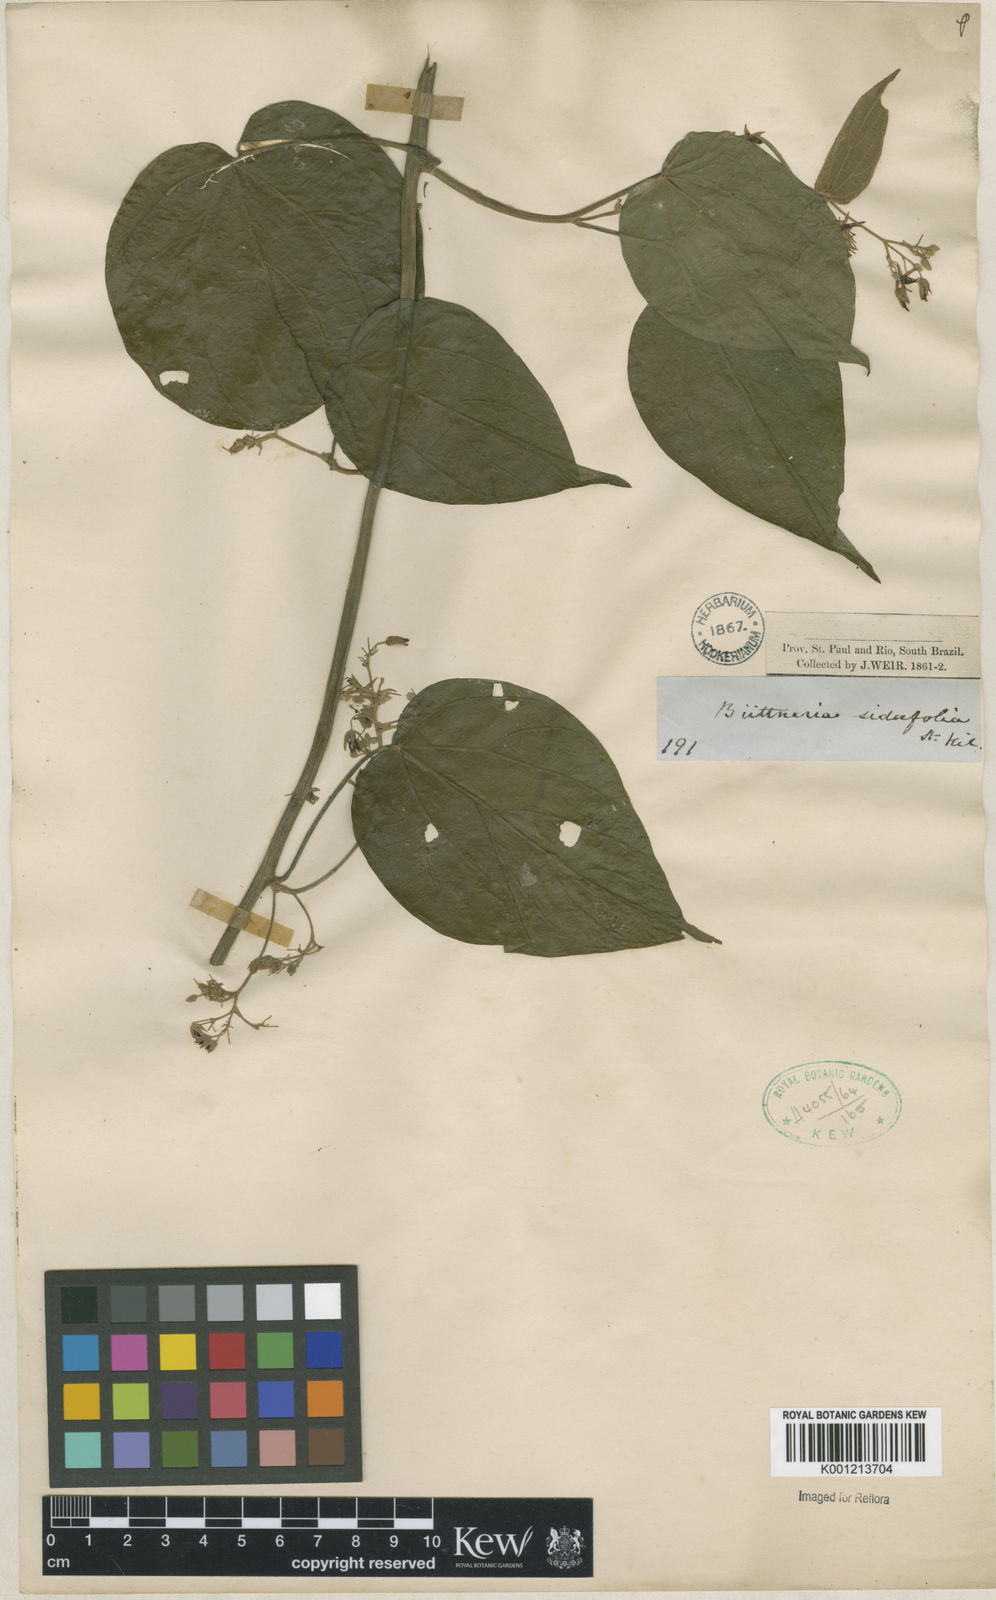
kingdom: Plantae
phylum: Tracheophyta
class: Magnoliopsida
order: Malvales
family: Malvaceae
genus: Byttneria
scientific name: Byttneria catalpifolia
